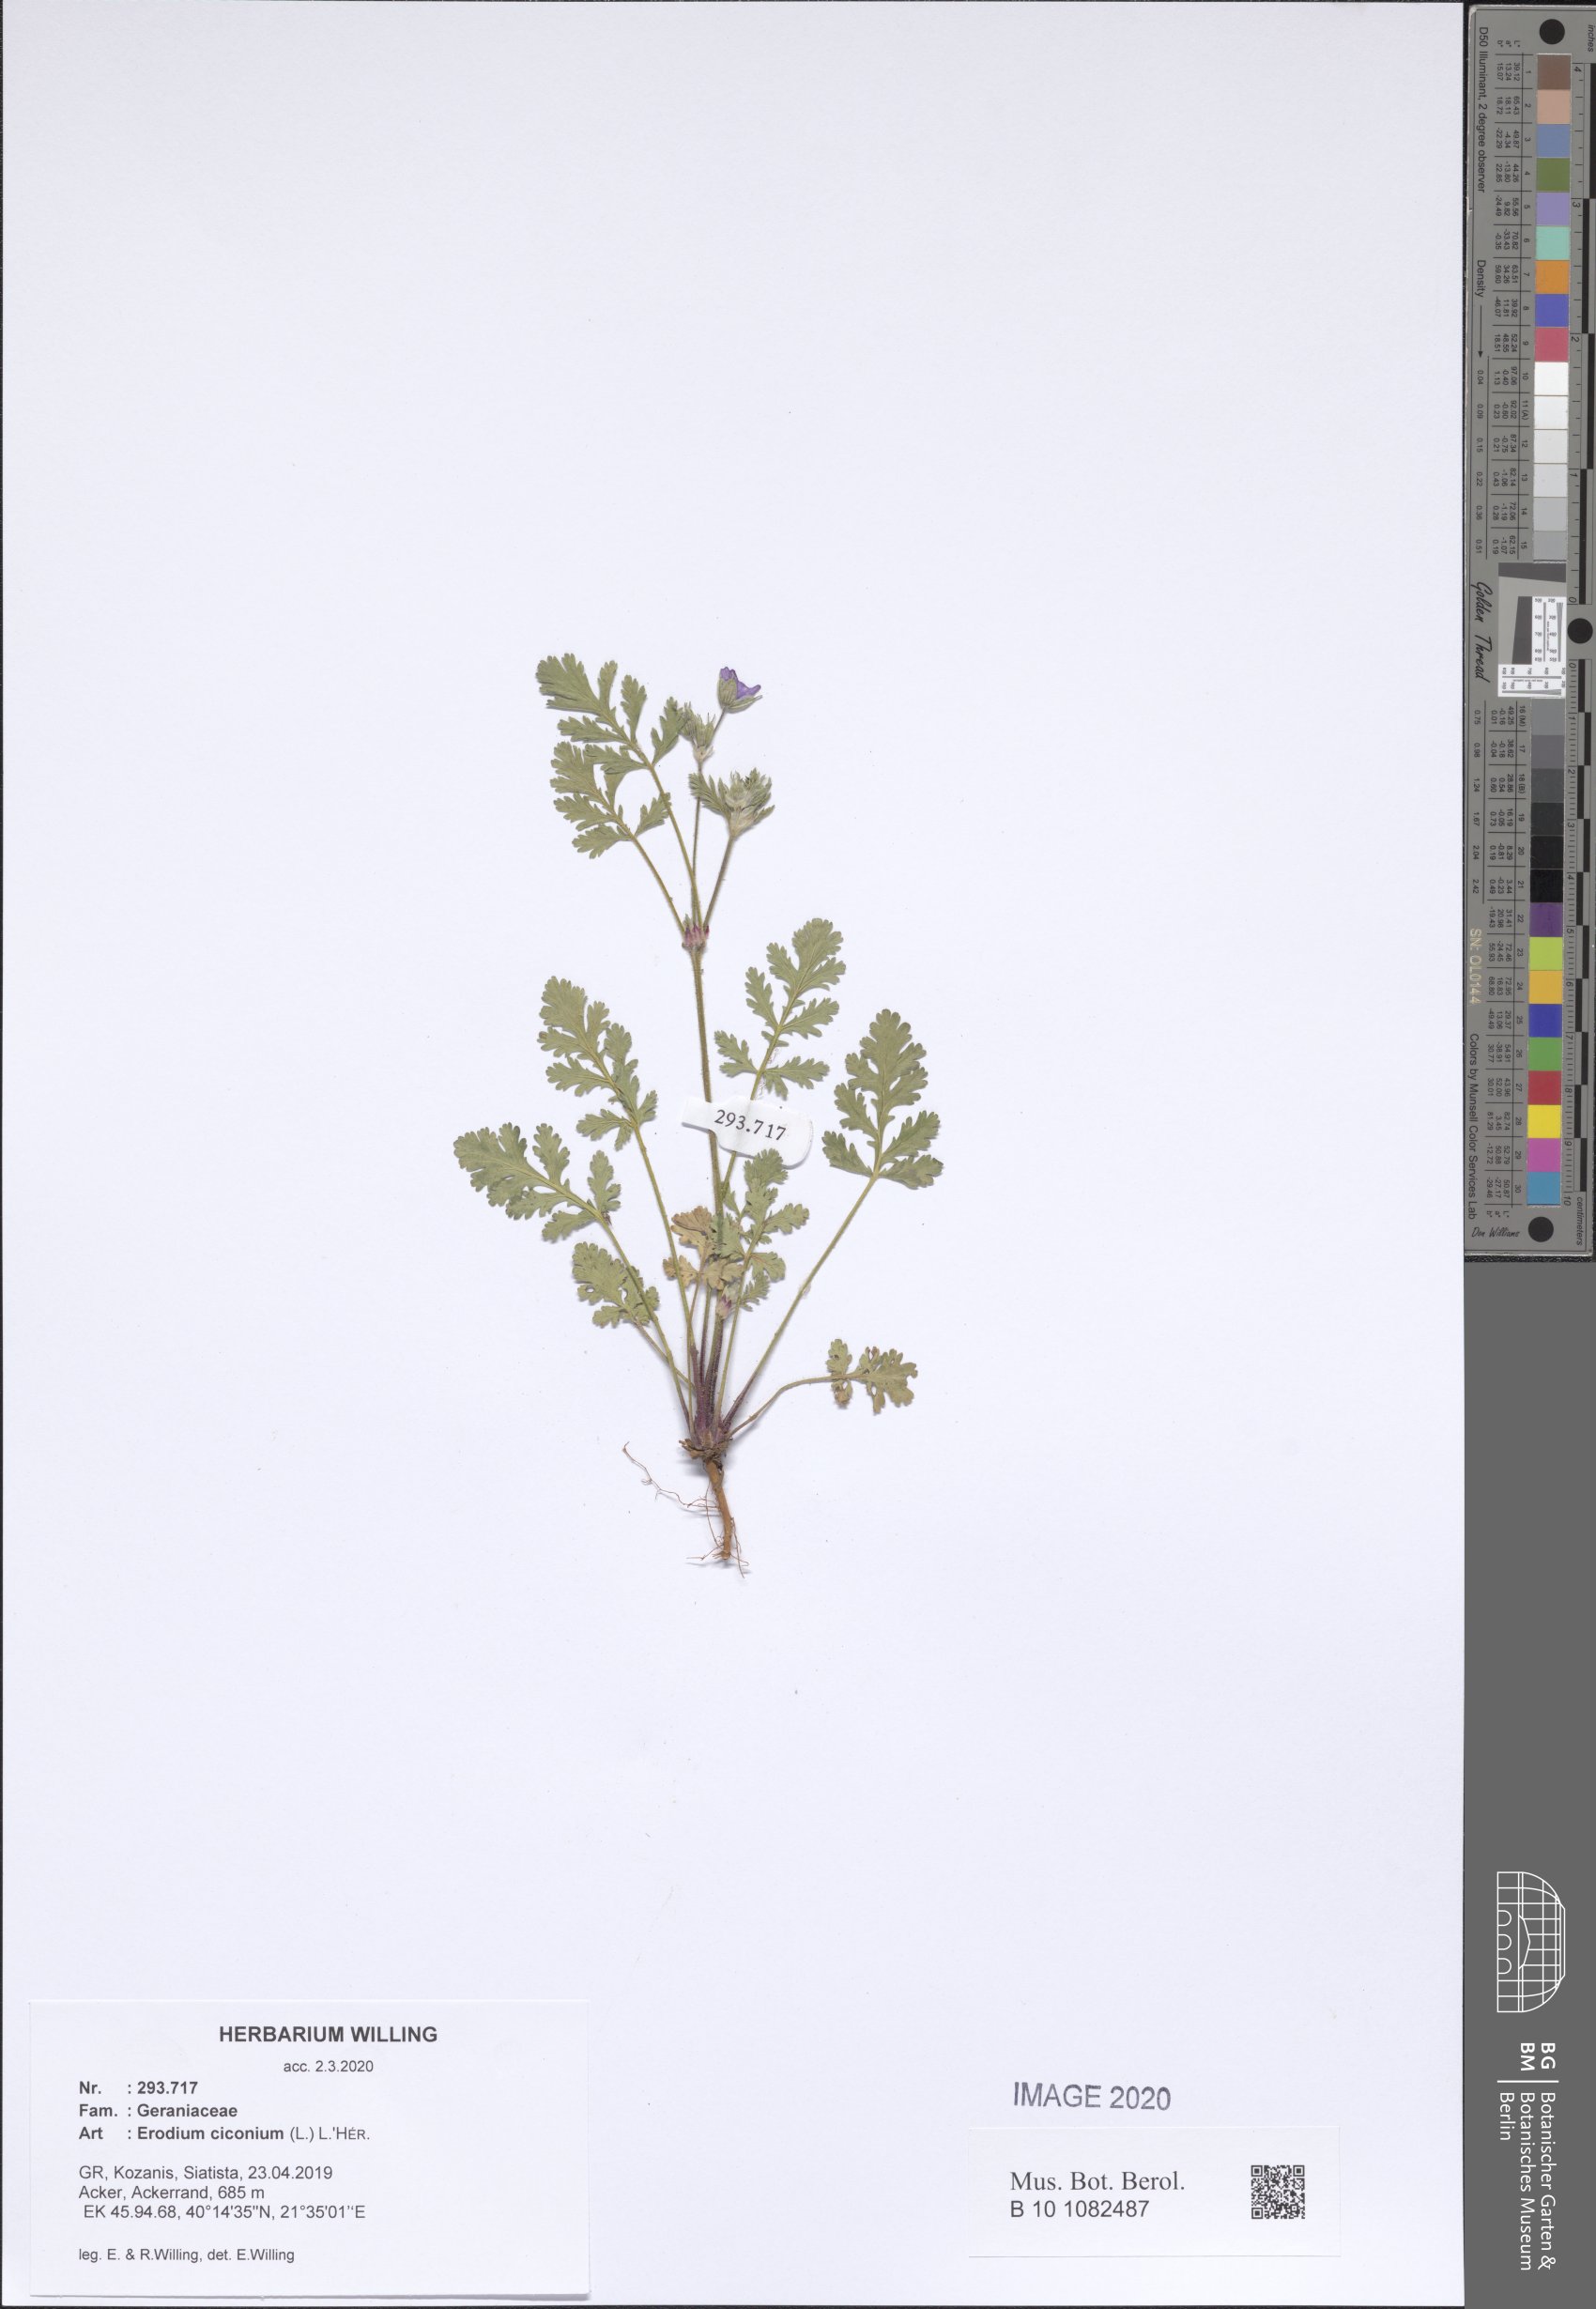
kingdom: Plantae
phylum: Tracheophyta
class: Magnoliopsida
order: Geraniales
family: Geraniaceae
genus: Erodium
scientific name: Erodium ciconium
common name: Common stork's bill
